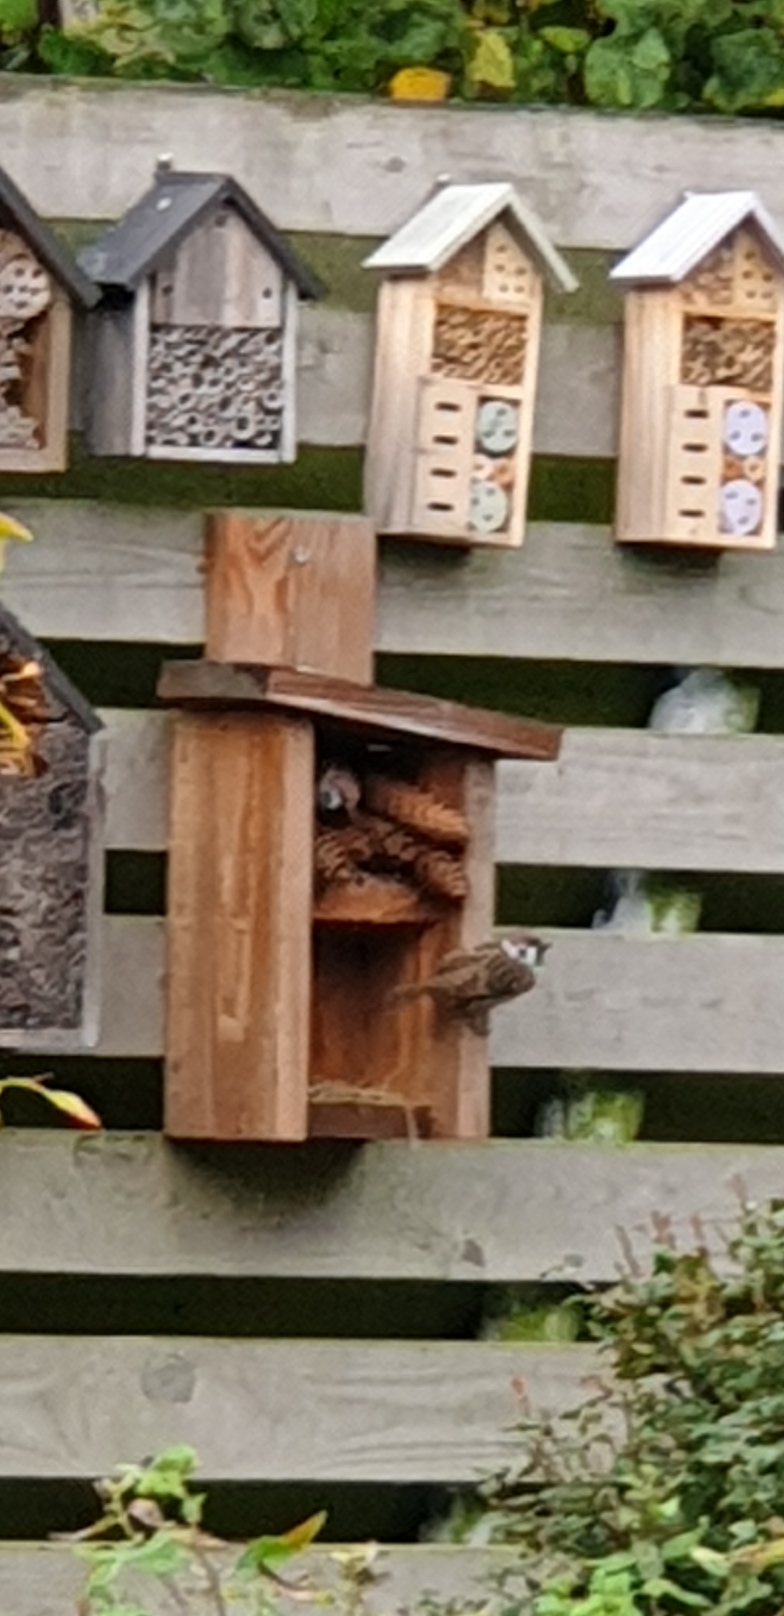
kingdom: Animalia
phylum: Chordata
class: Aves
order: Passeriformes
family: Passeridae
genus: Passer
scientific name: Passer montanus
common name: Skovspurv
